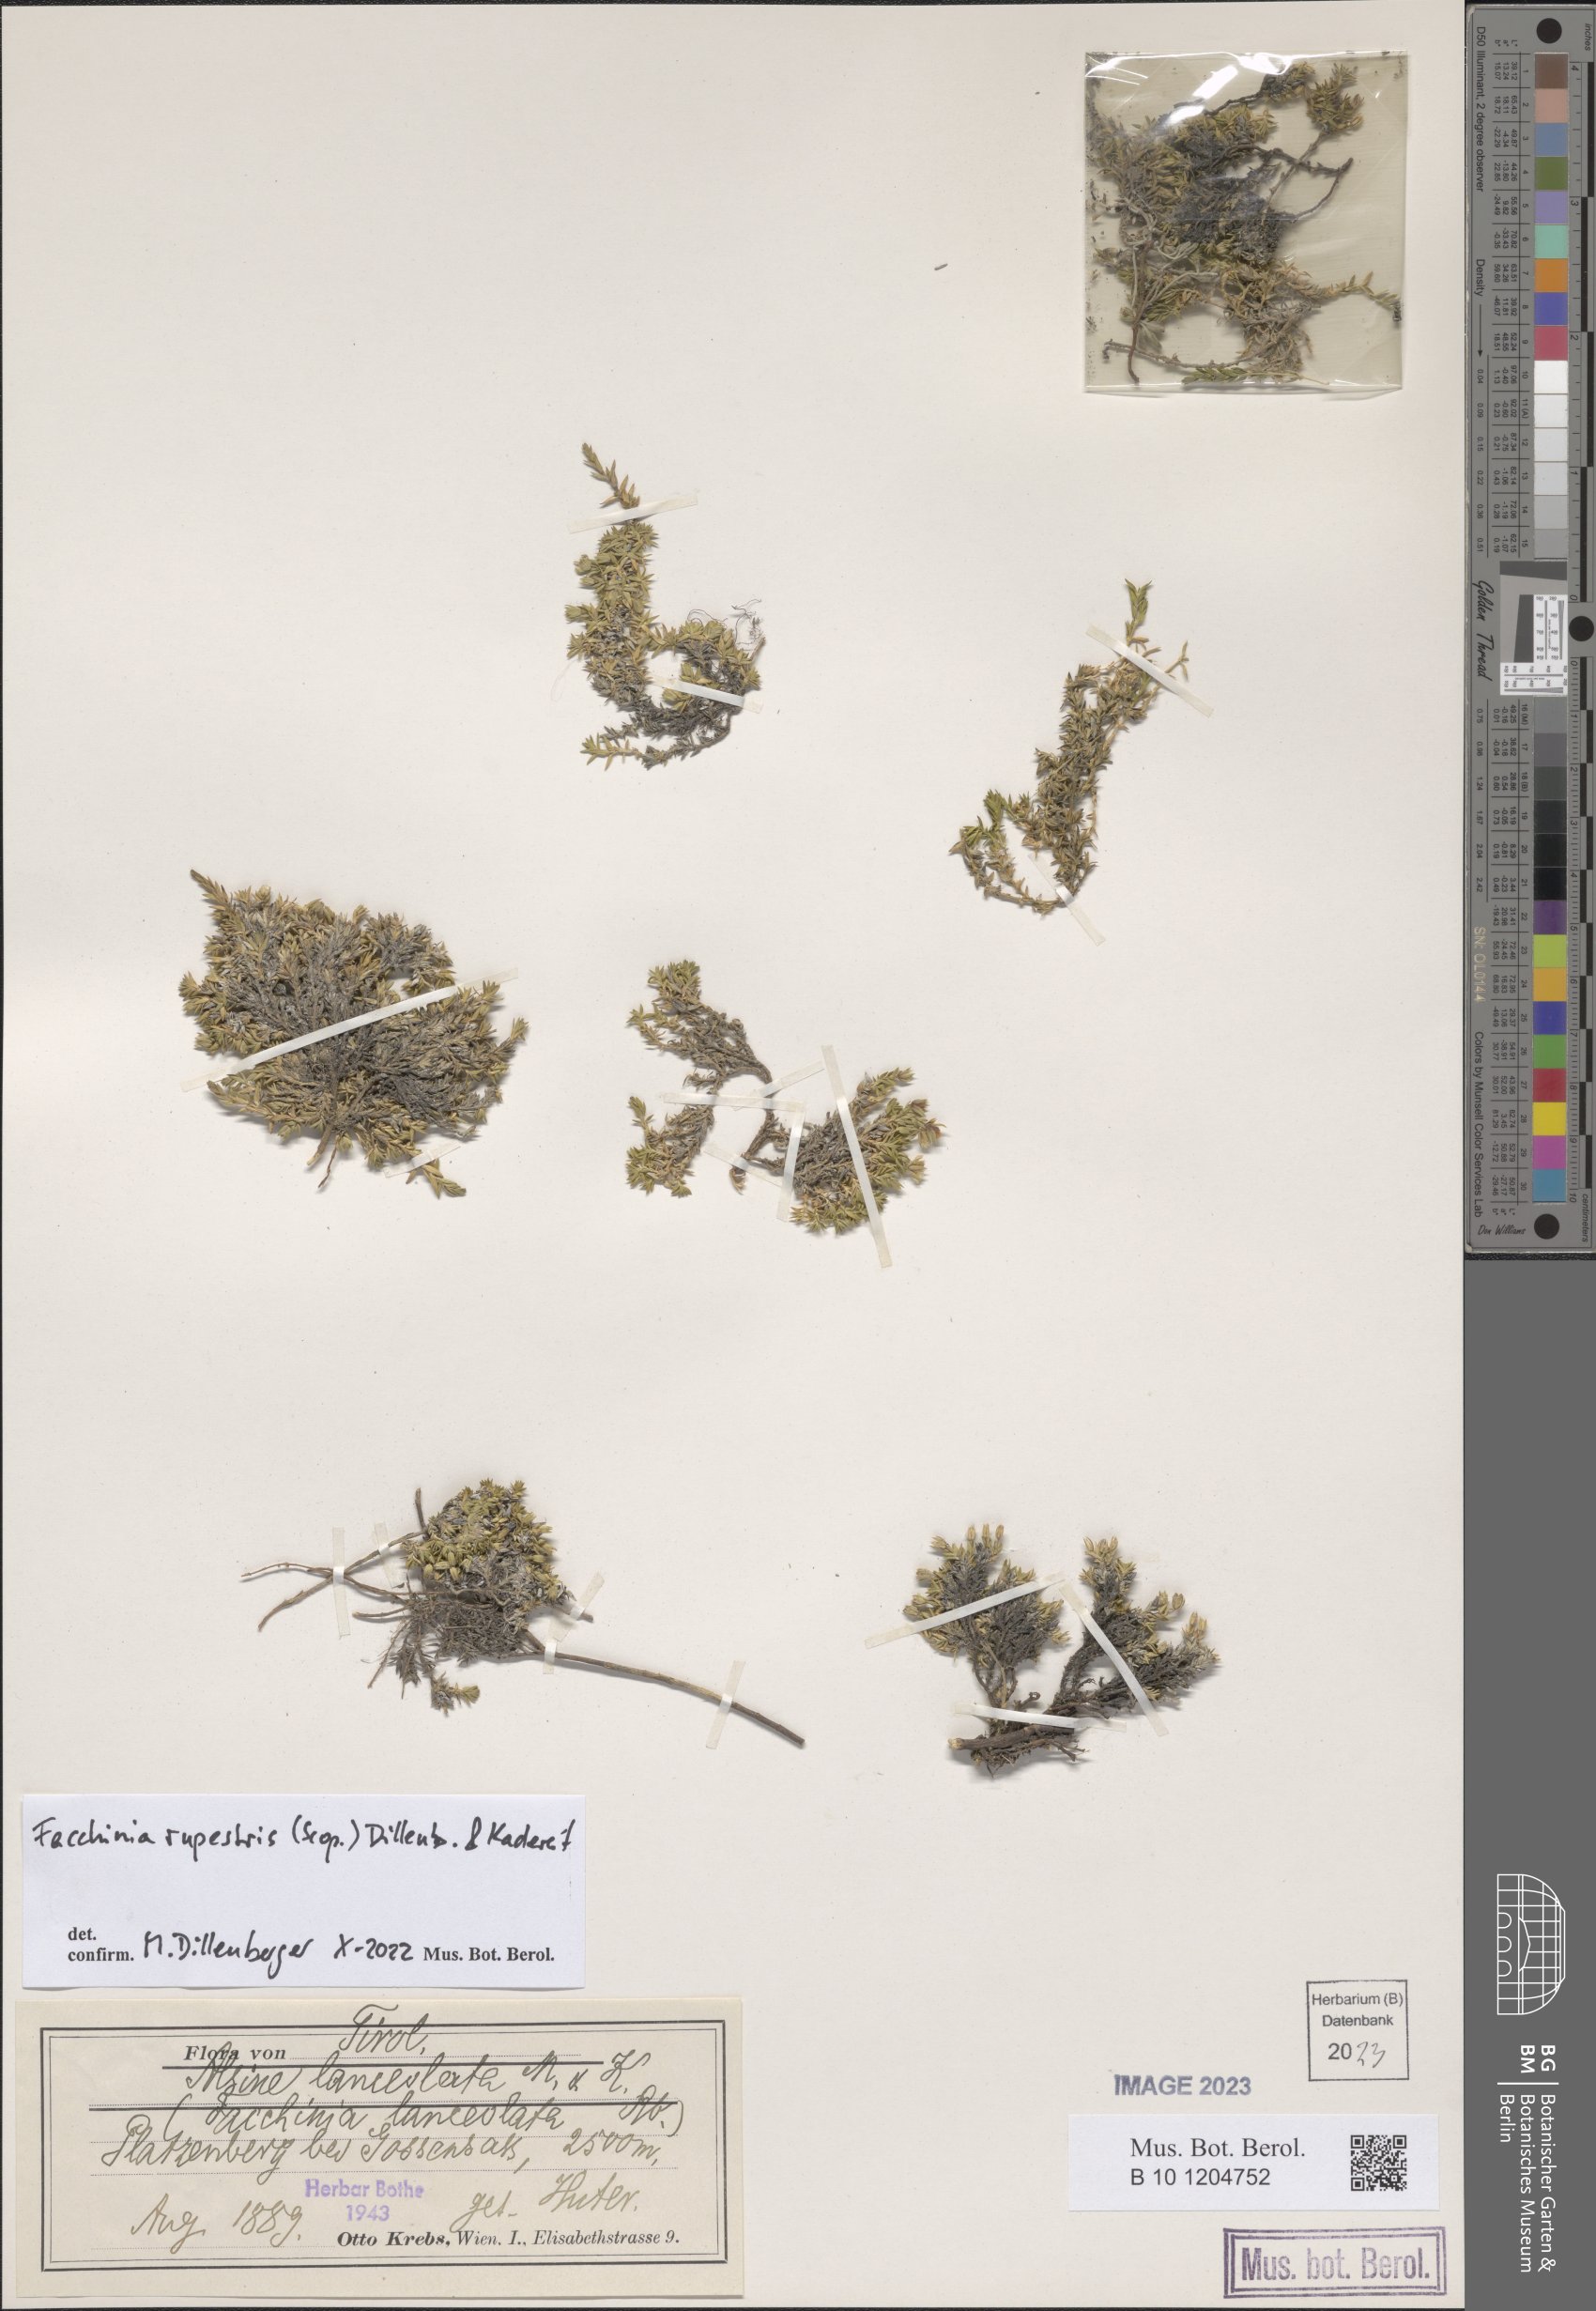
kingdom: Plantae
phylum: Tracheophyta
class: Magnoliopsida
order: Caryophyllales
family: Caryophyllaceae
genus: Facchinia
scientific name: Facchinia rupestris
